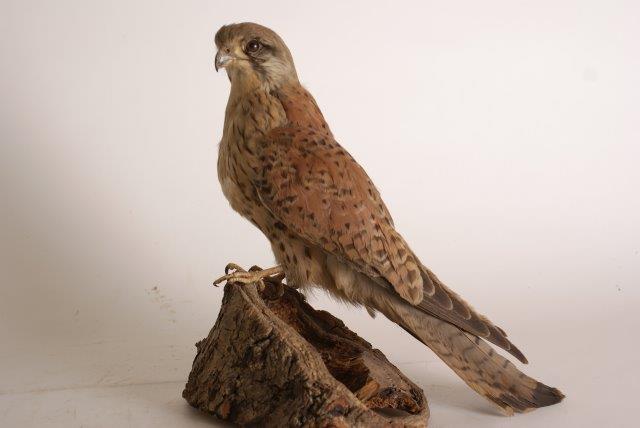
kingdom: Animalia
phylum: Chordata
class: Aves
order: Falconiformes
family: Falconidae
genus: Falco
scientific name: Falco tinnunculus
